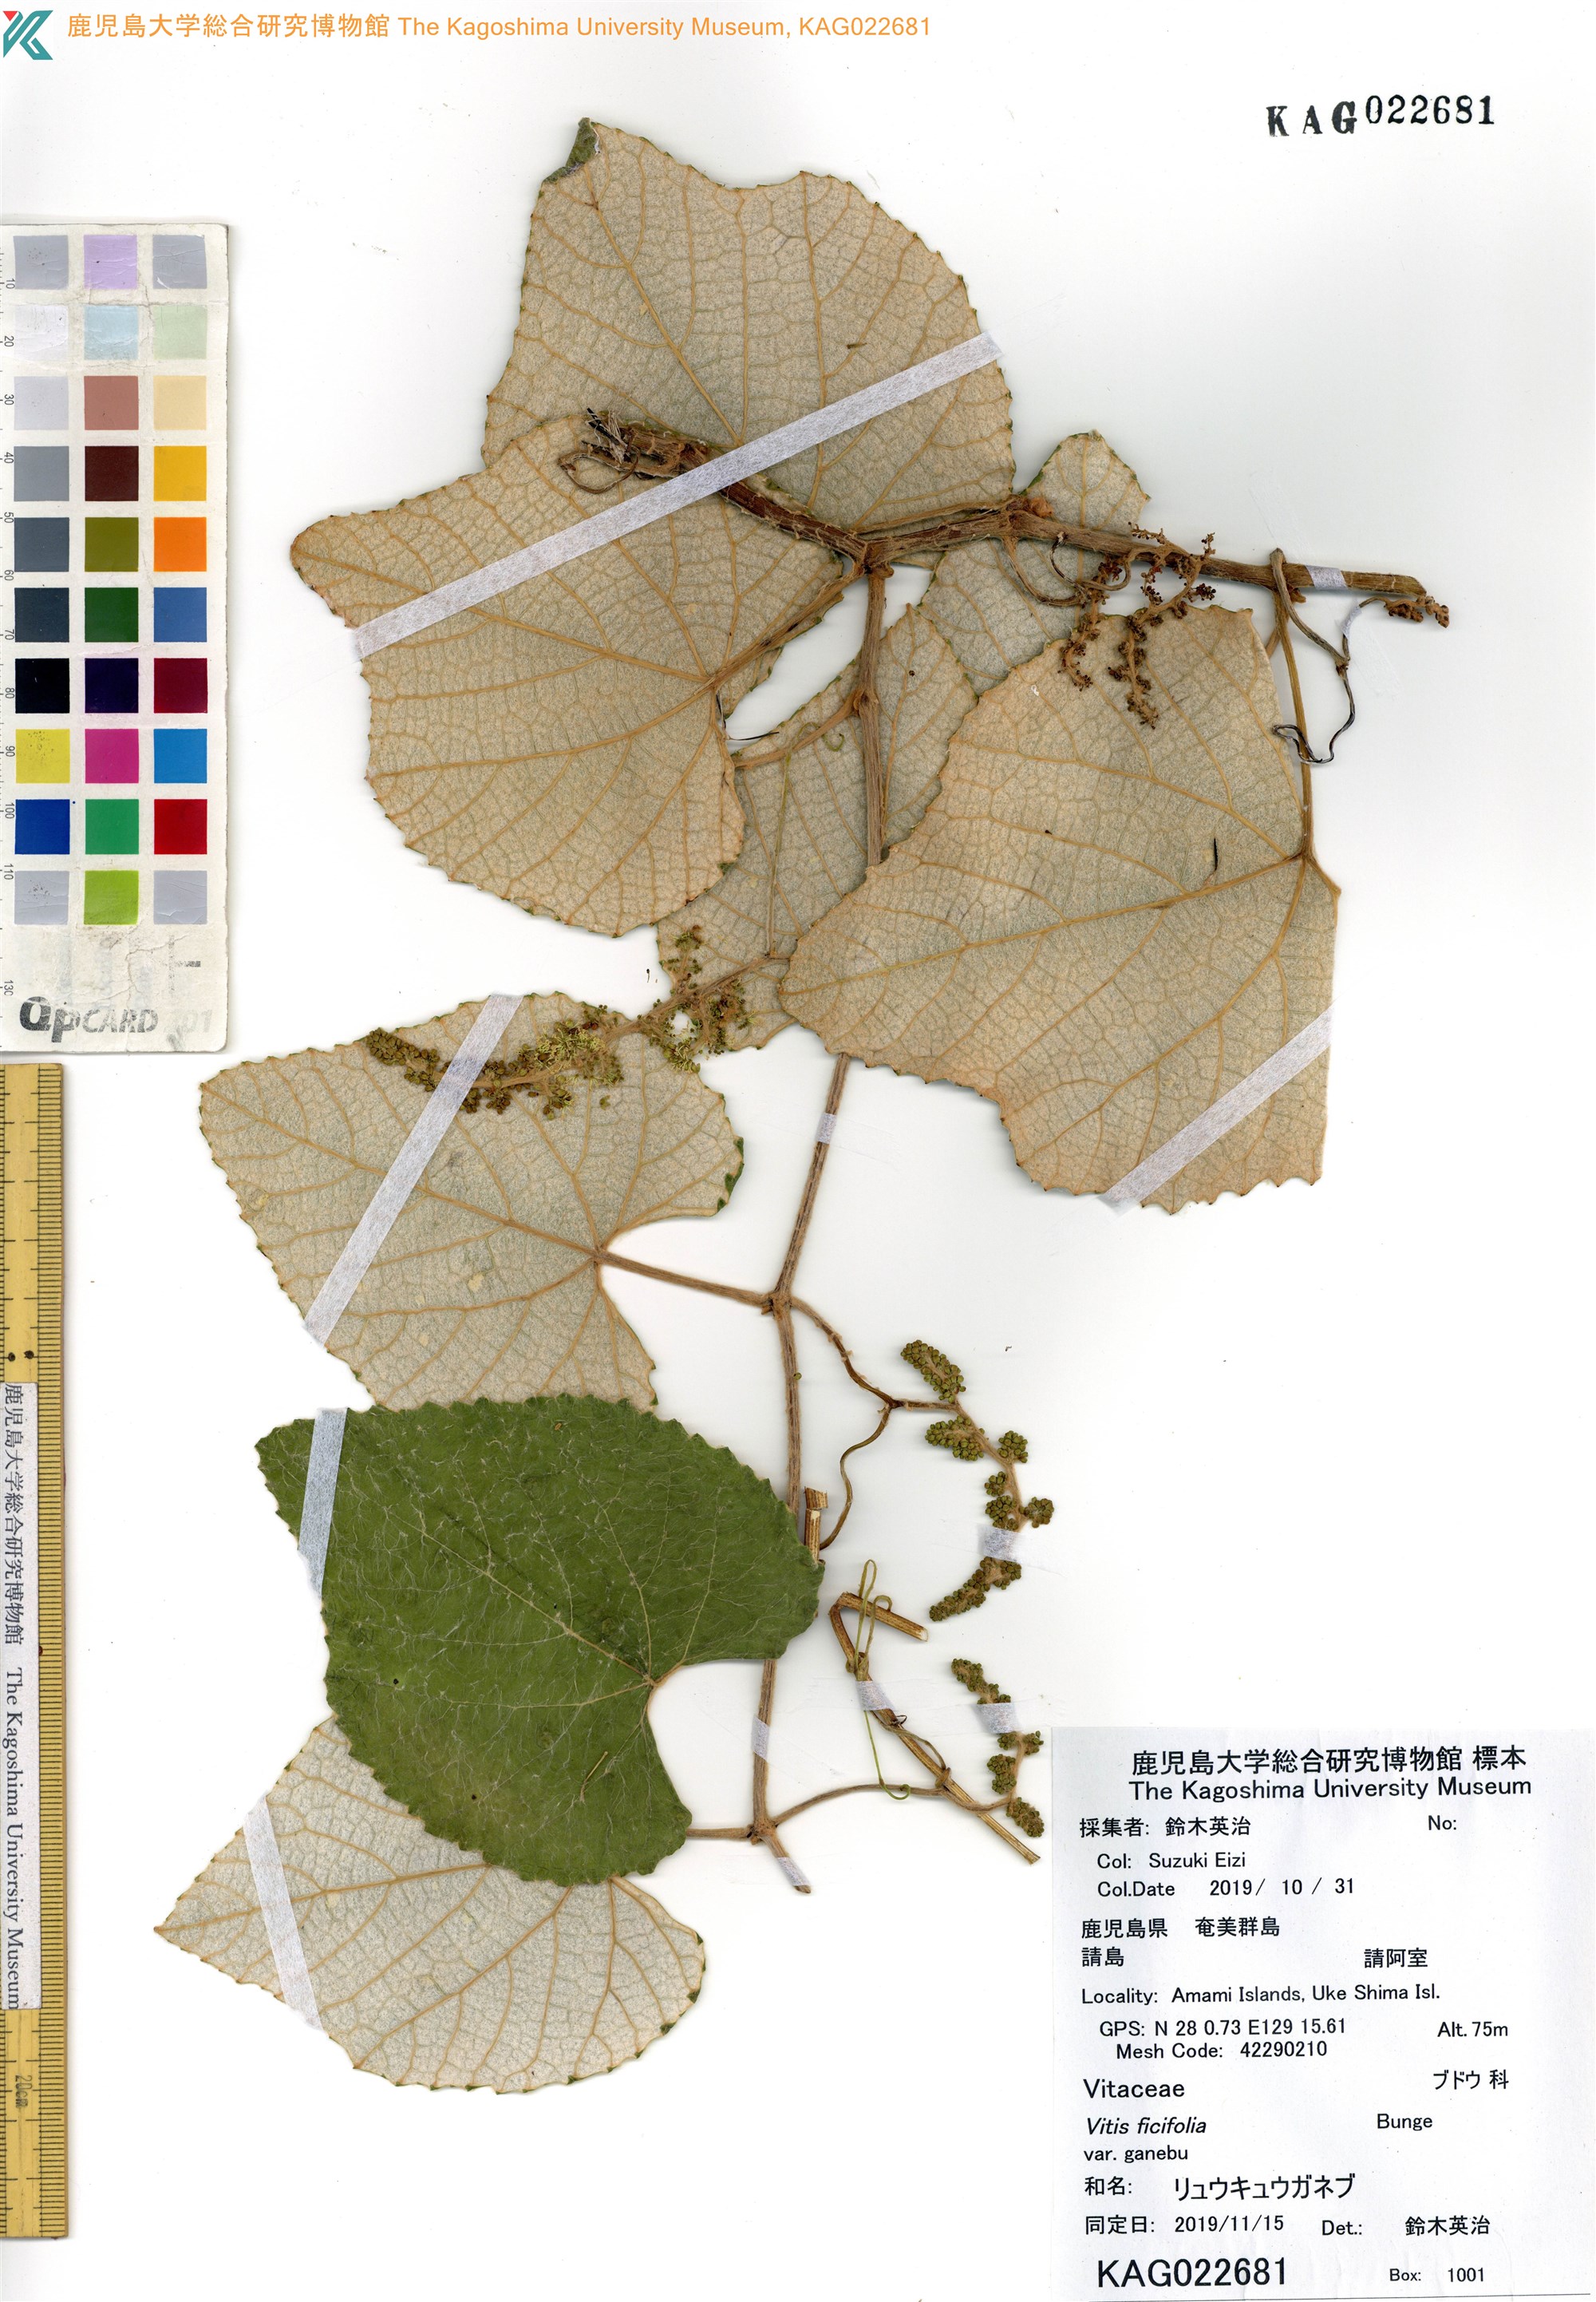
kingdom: Plantae
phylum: Tracheophyta
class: Magnoliopsida
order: Vitales
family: Vitaceae
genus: Vitis
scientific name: Vitis ficifolia
